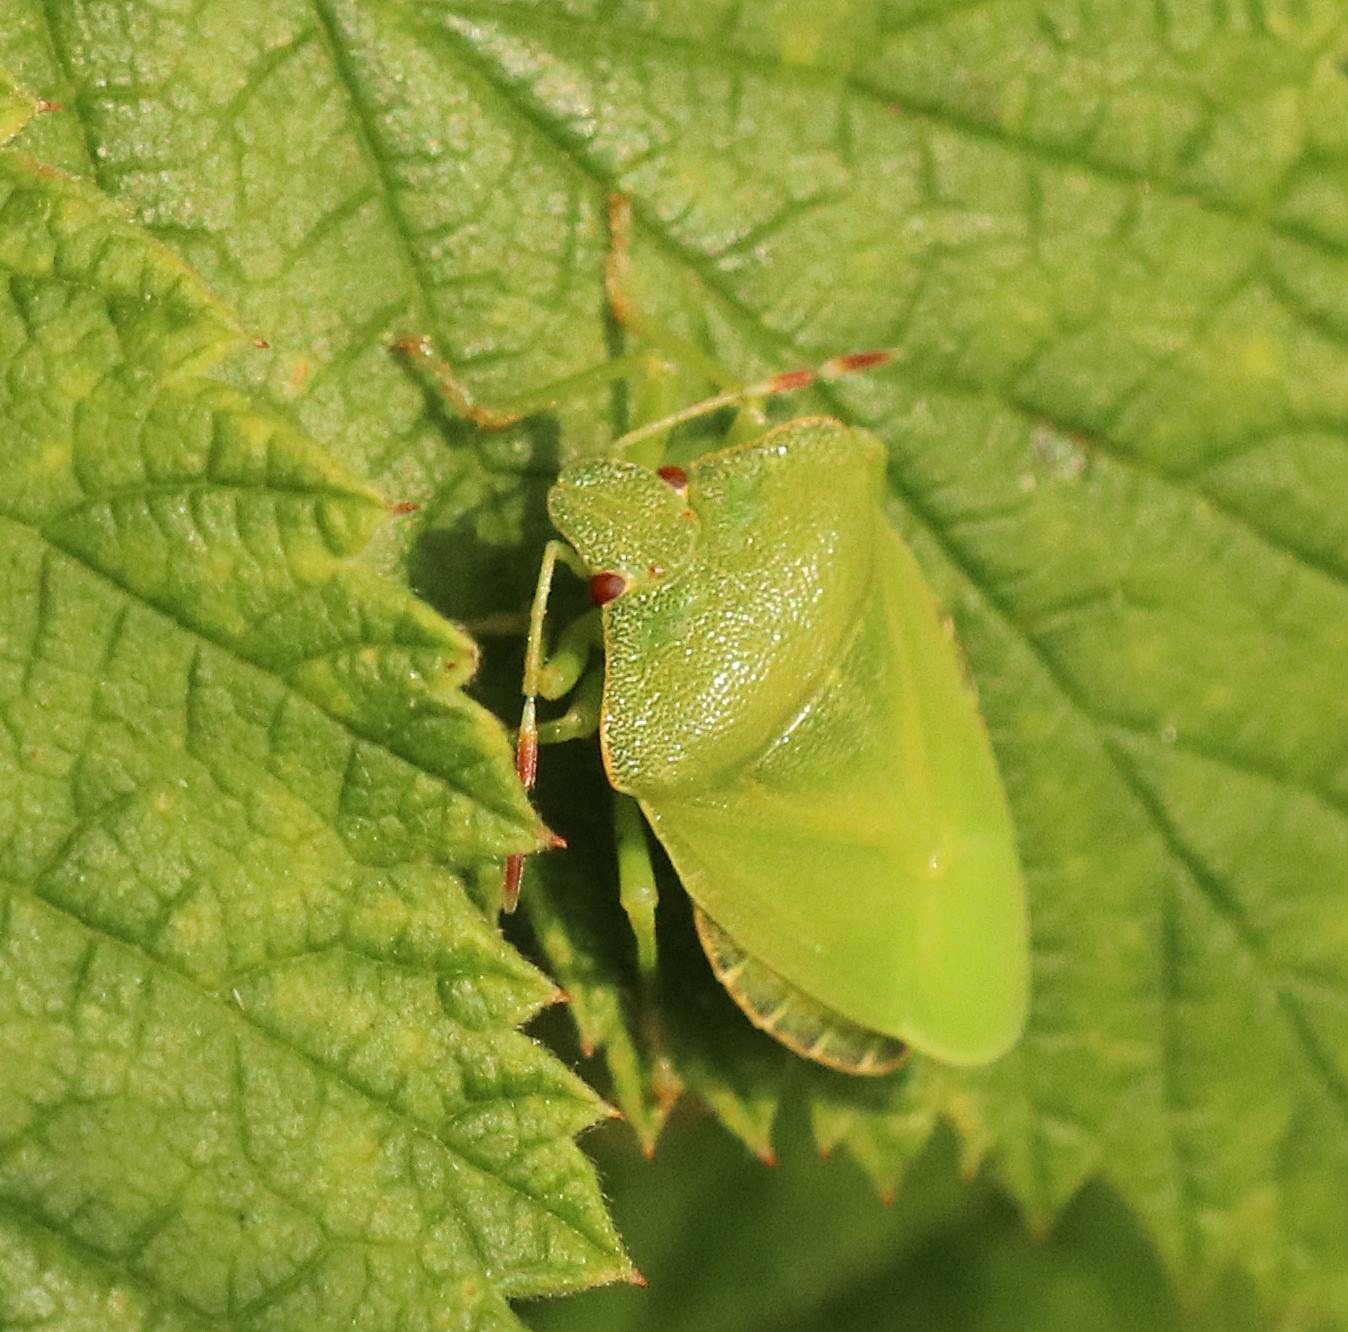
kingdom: Animalia
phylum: Arthropoda
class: Insecta
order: Hemiptera
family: Pentatomidae
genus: Palomena
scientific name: Palomena prasina
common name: Grøn bredtæge
